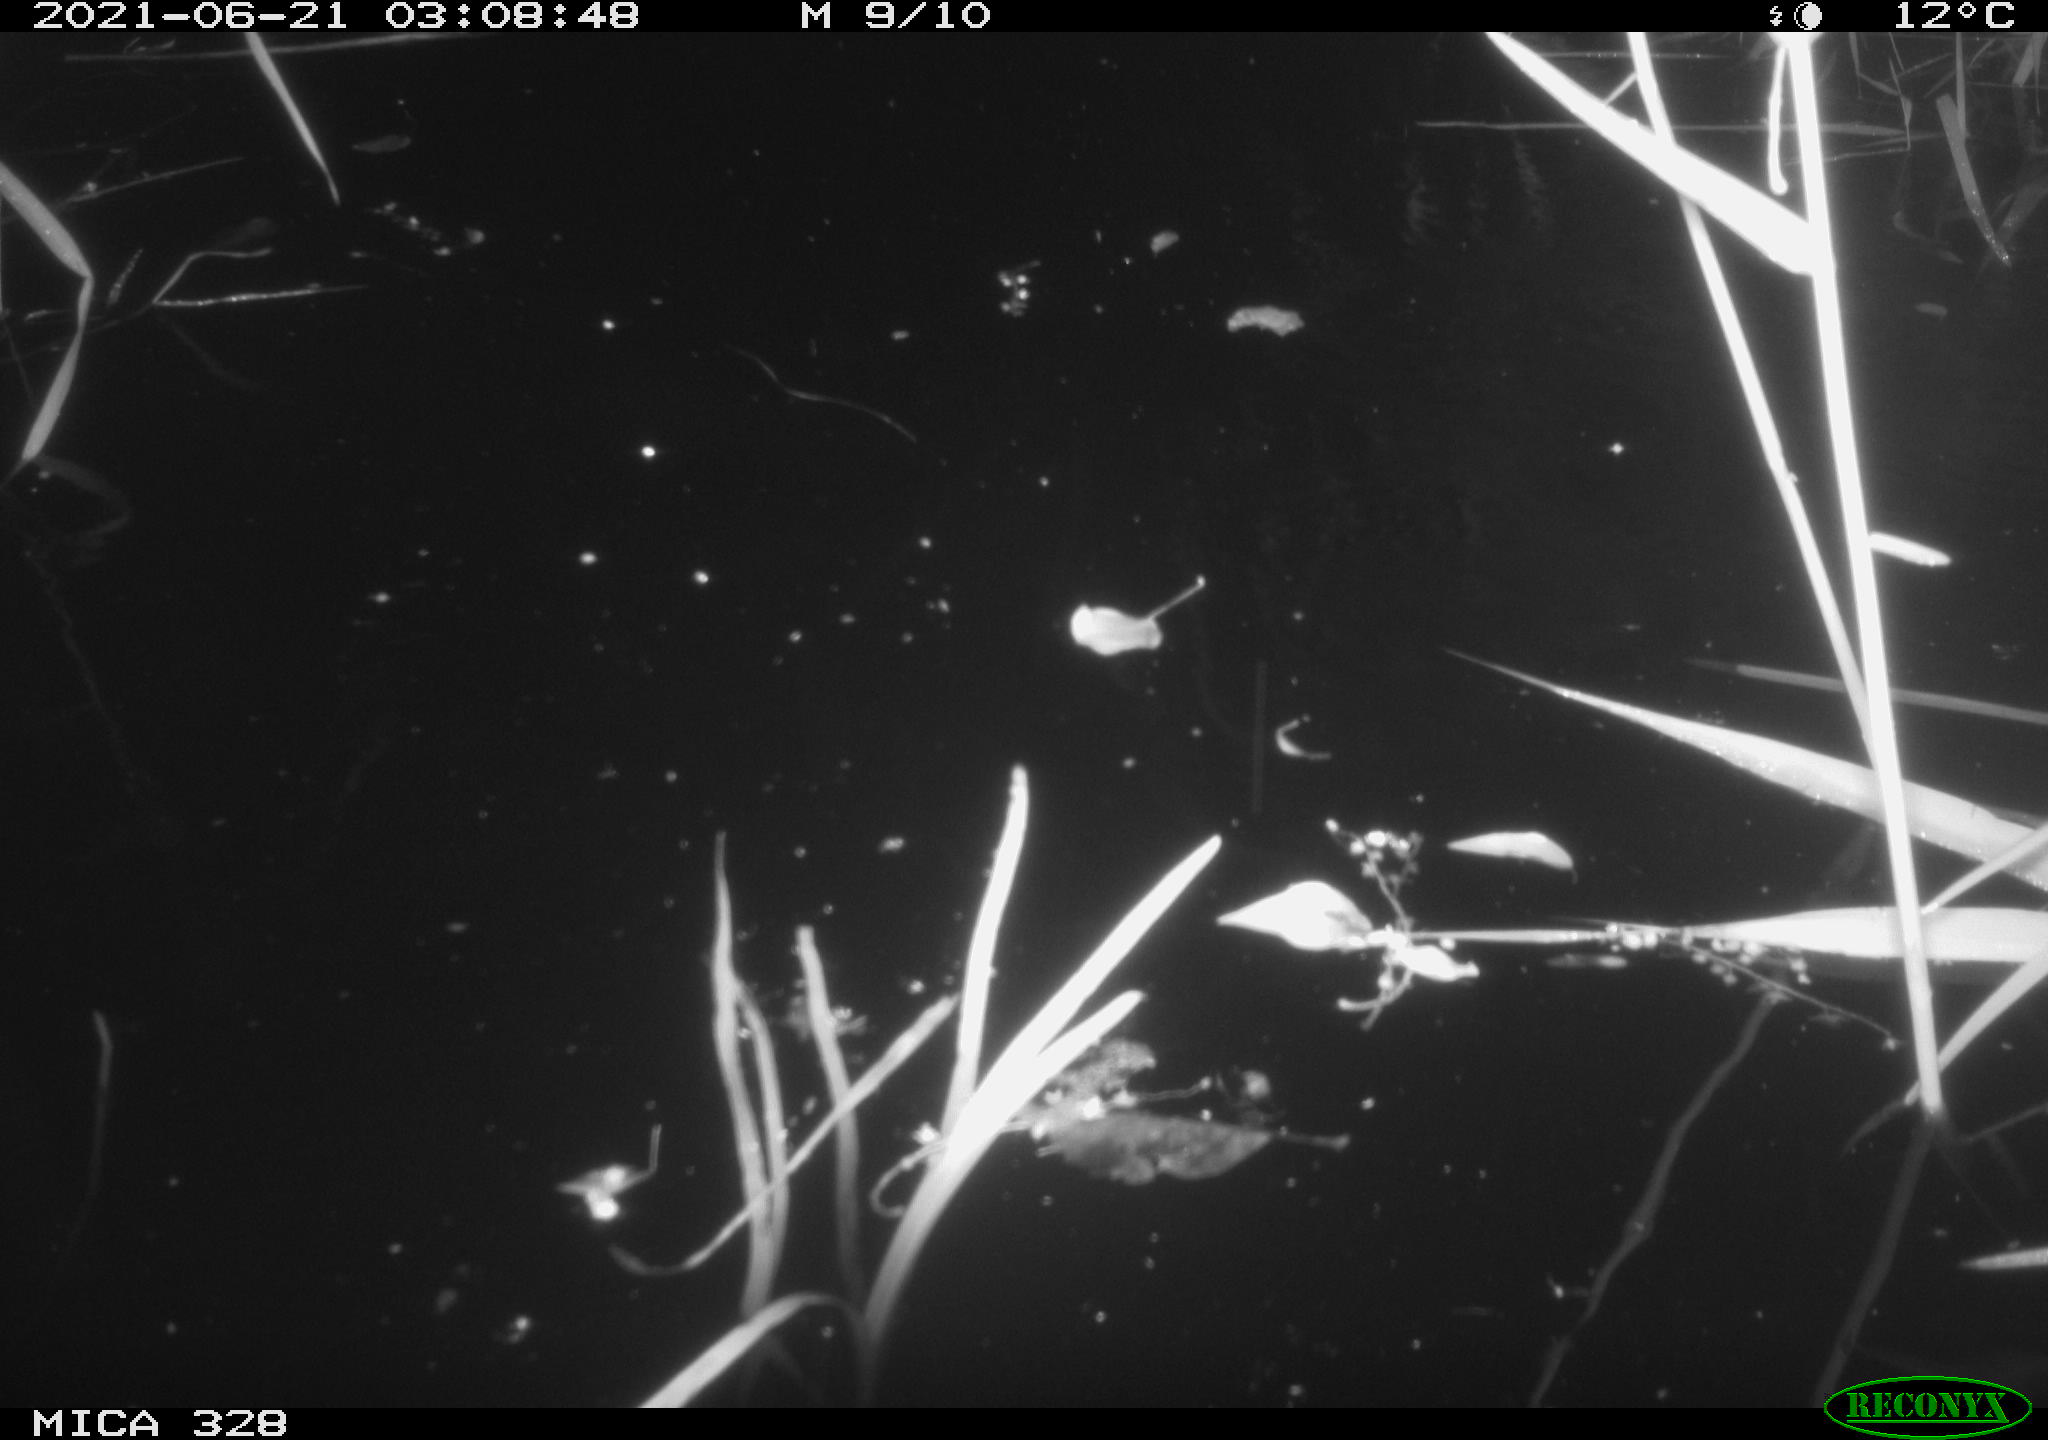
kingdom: Animalia
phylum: Chordata
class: Mammalia
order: Rodentia
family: Cricetidae
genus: Ondatra
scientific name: Ondatra zibethicus
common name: Muskrat
